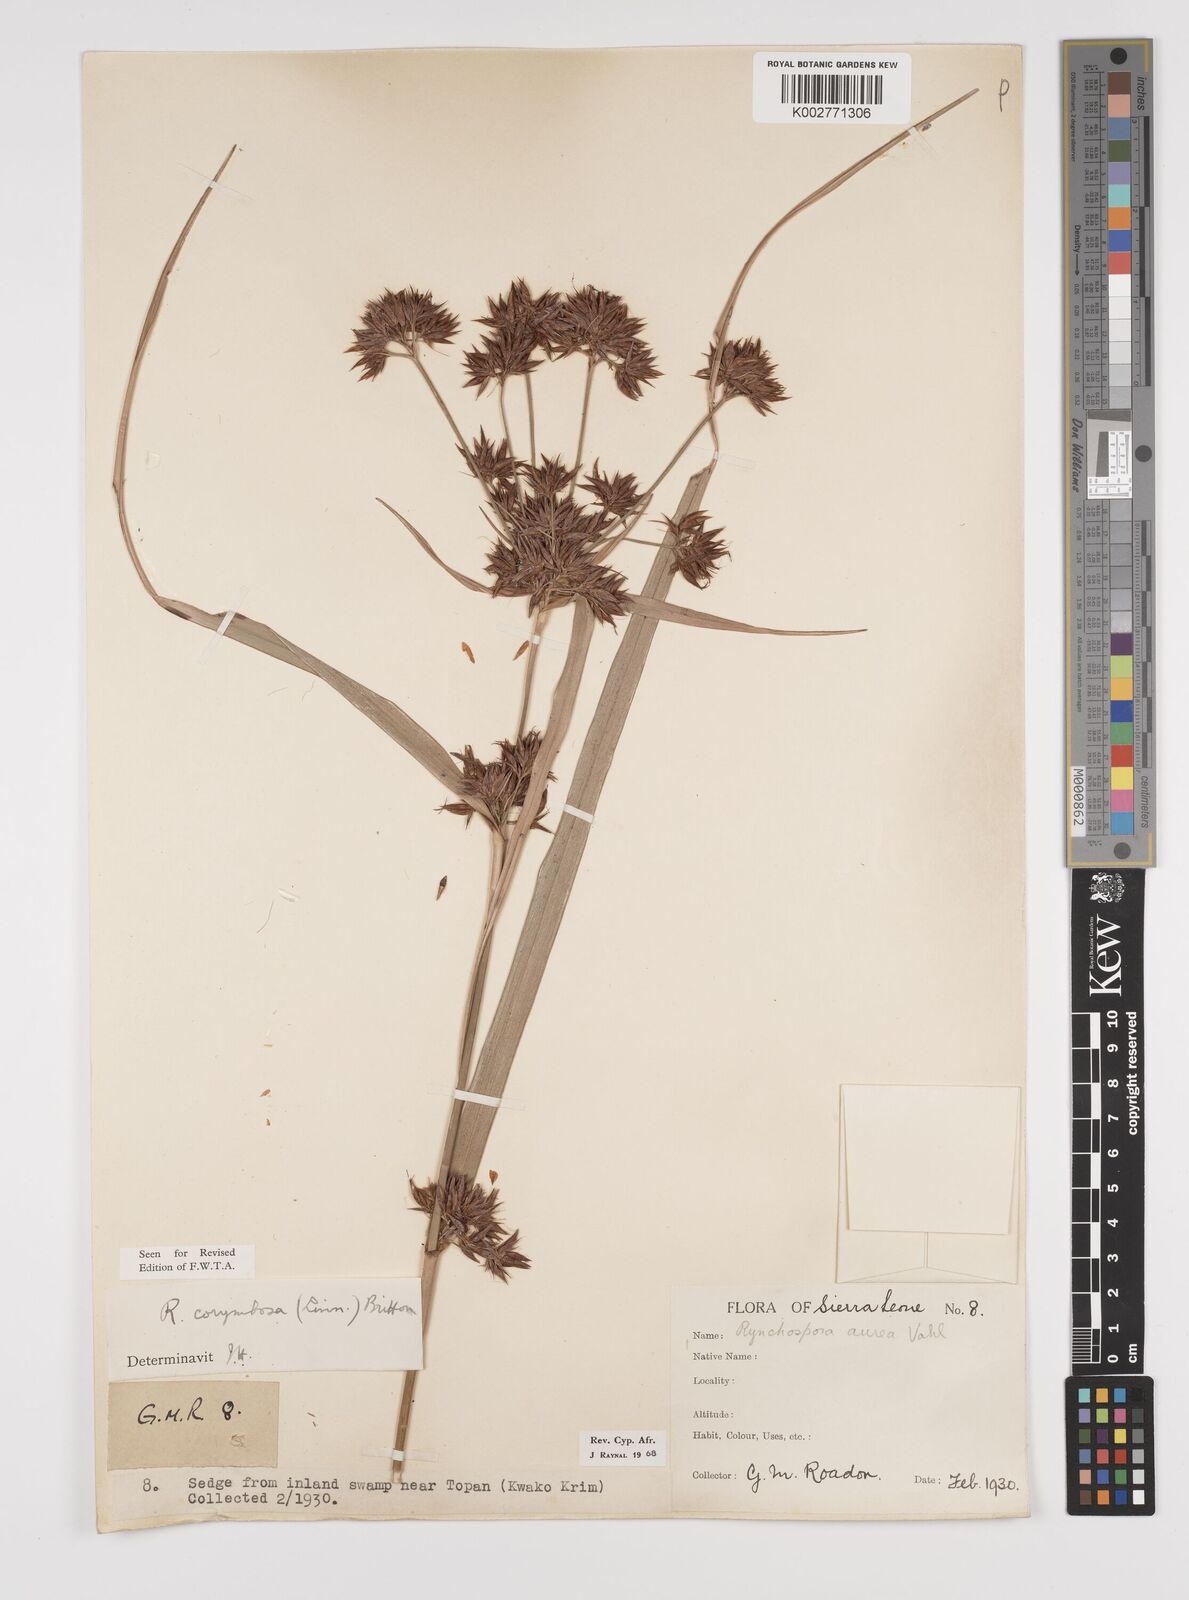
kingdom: Plantae
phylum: Tracheophyta
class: Liliopsida
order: Poales
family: Cyperaceae
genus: Rhynchospora
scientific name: Rhynchospora corymbosa
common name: Golden beak sedge
